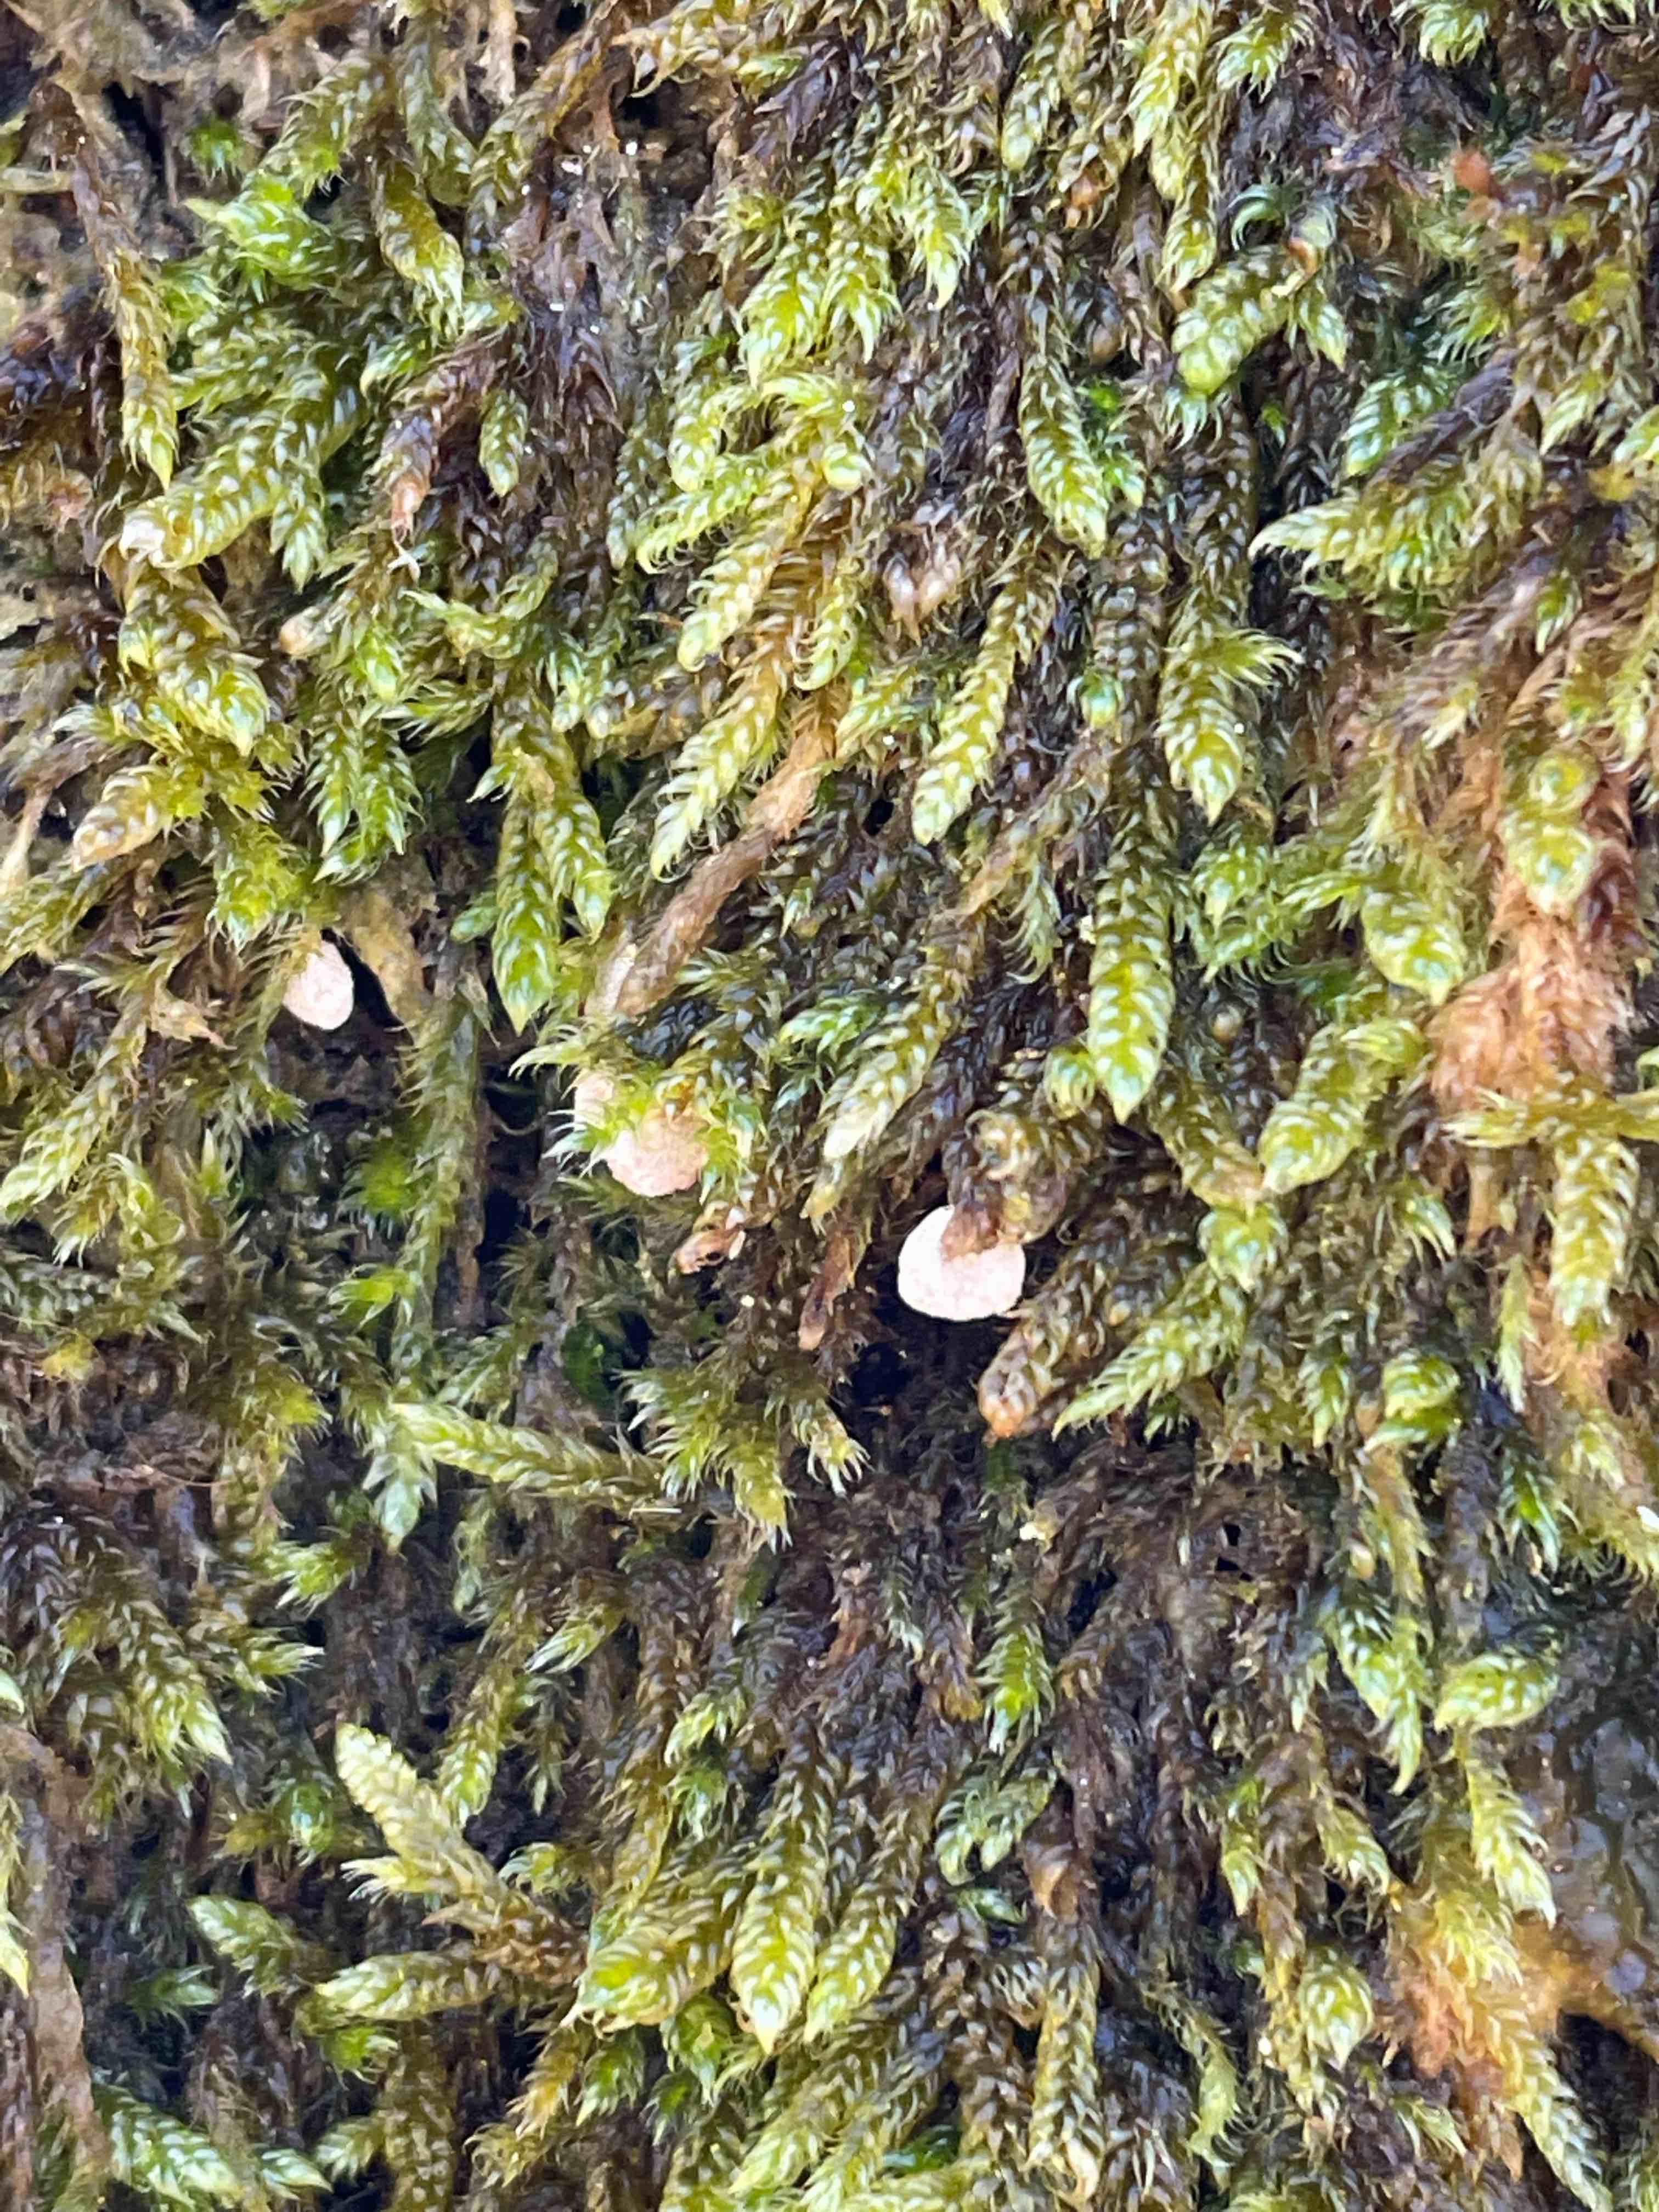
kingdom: Fungi
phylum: Basidiomycota
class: Agaricomycetes
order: Agaricales
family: Chromocyphellaceae
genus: Chromocyphella
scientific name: Chromocyphella muscicola
